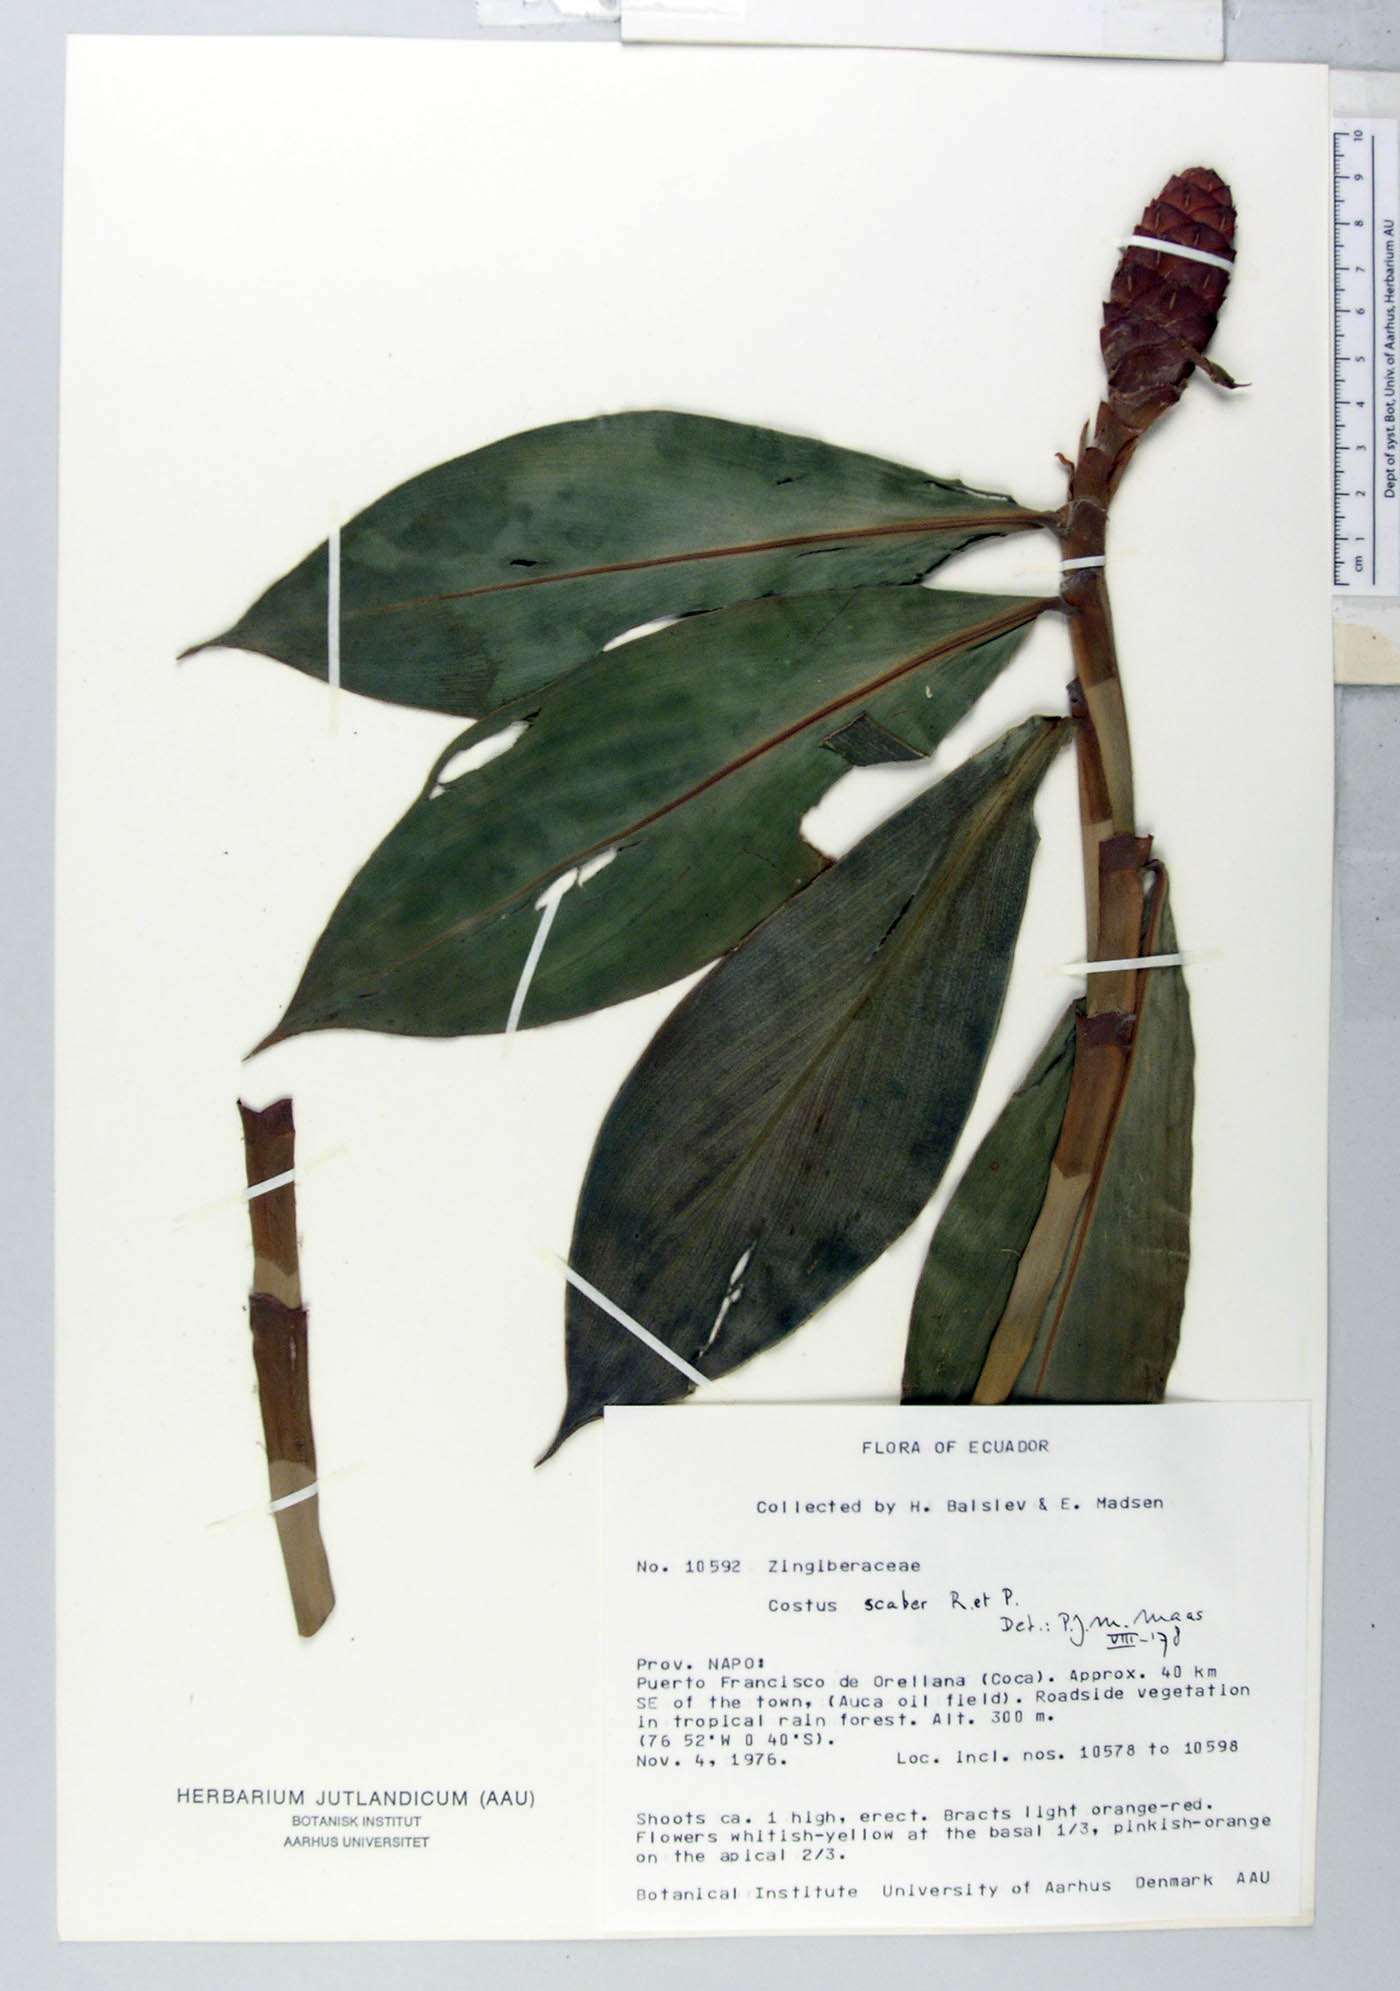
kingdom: Plantae
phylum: Tracheophyta
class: Liliopsida
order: Zingiberales
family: Costaceae
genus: Costus
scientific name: Costus scaber
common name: Spiral head ginger
